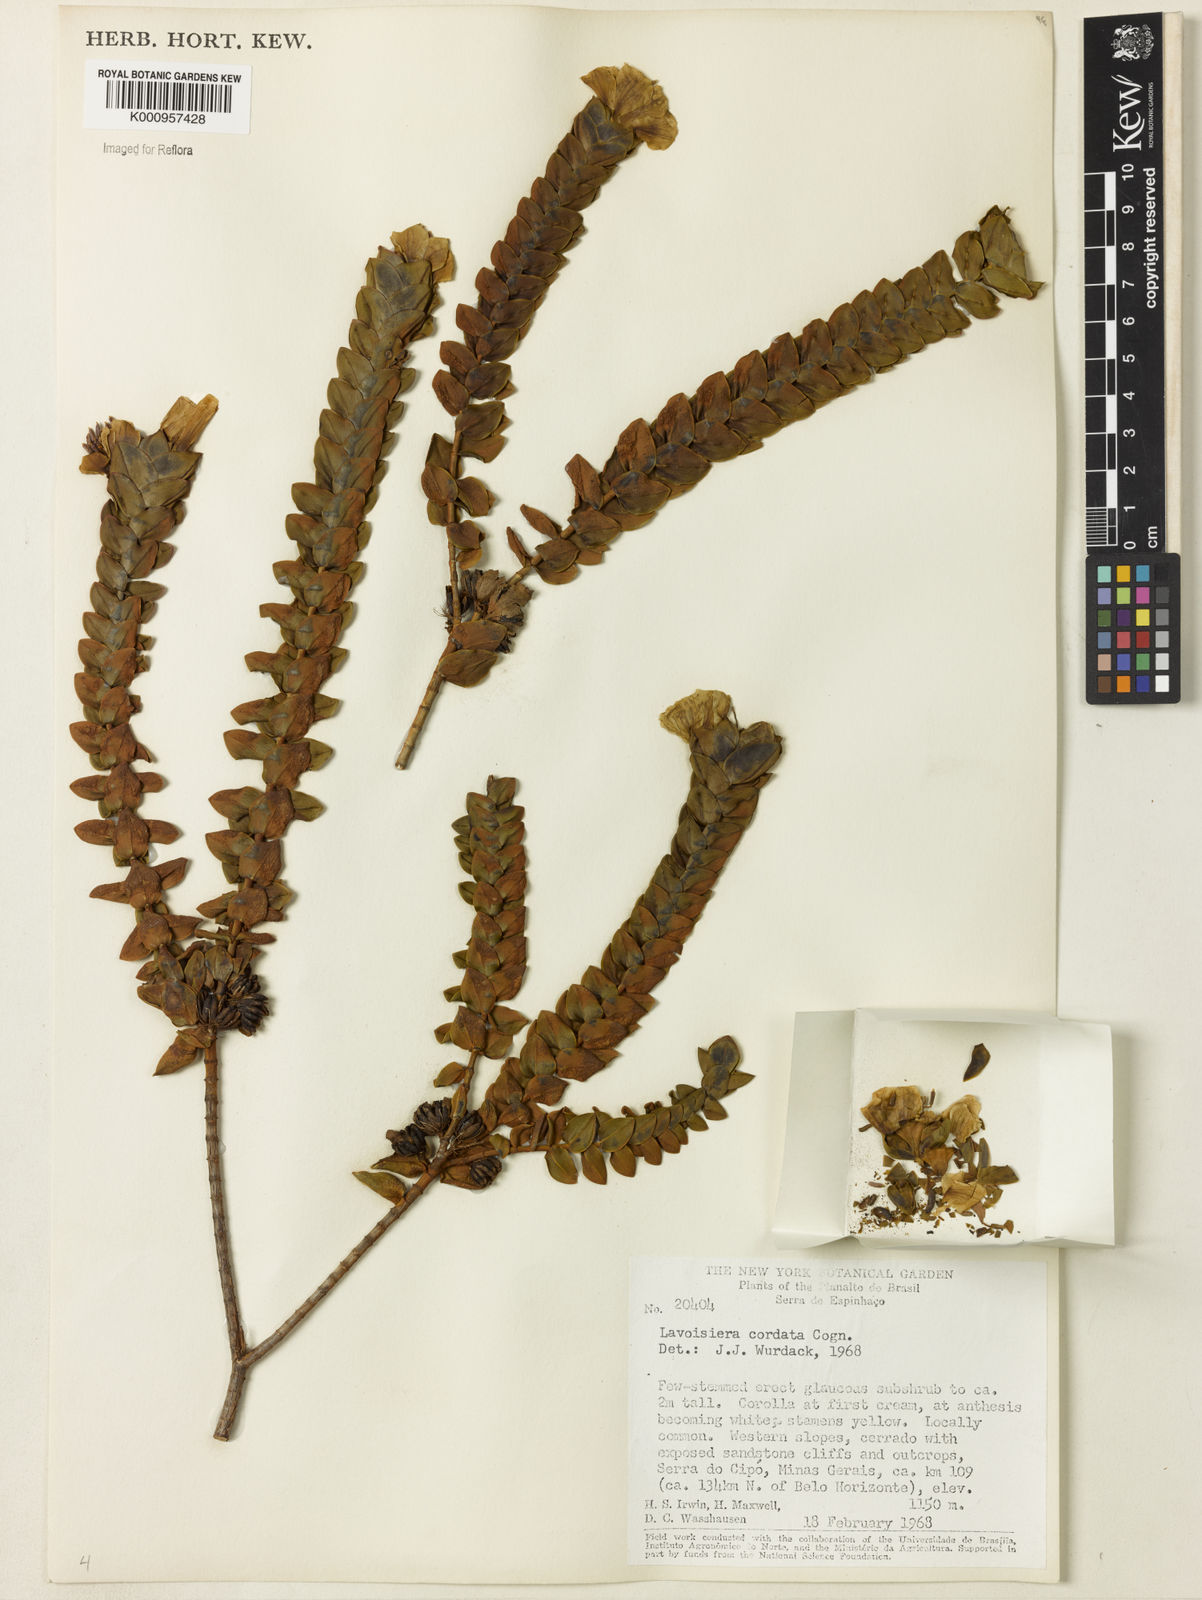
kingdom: Plantae
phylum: Tracheophyta
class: Magnoliopsida
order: Myrtales
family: Melastomataceae
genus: Microlicia
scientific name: Microlicia cordifolia
